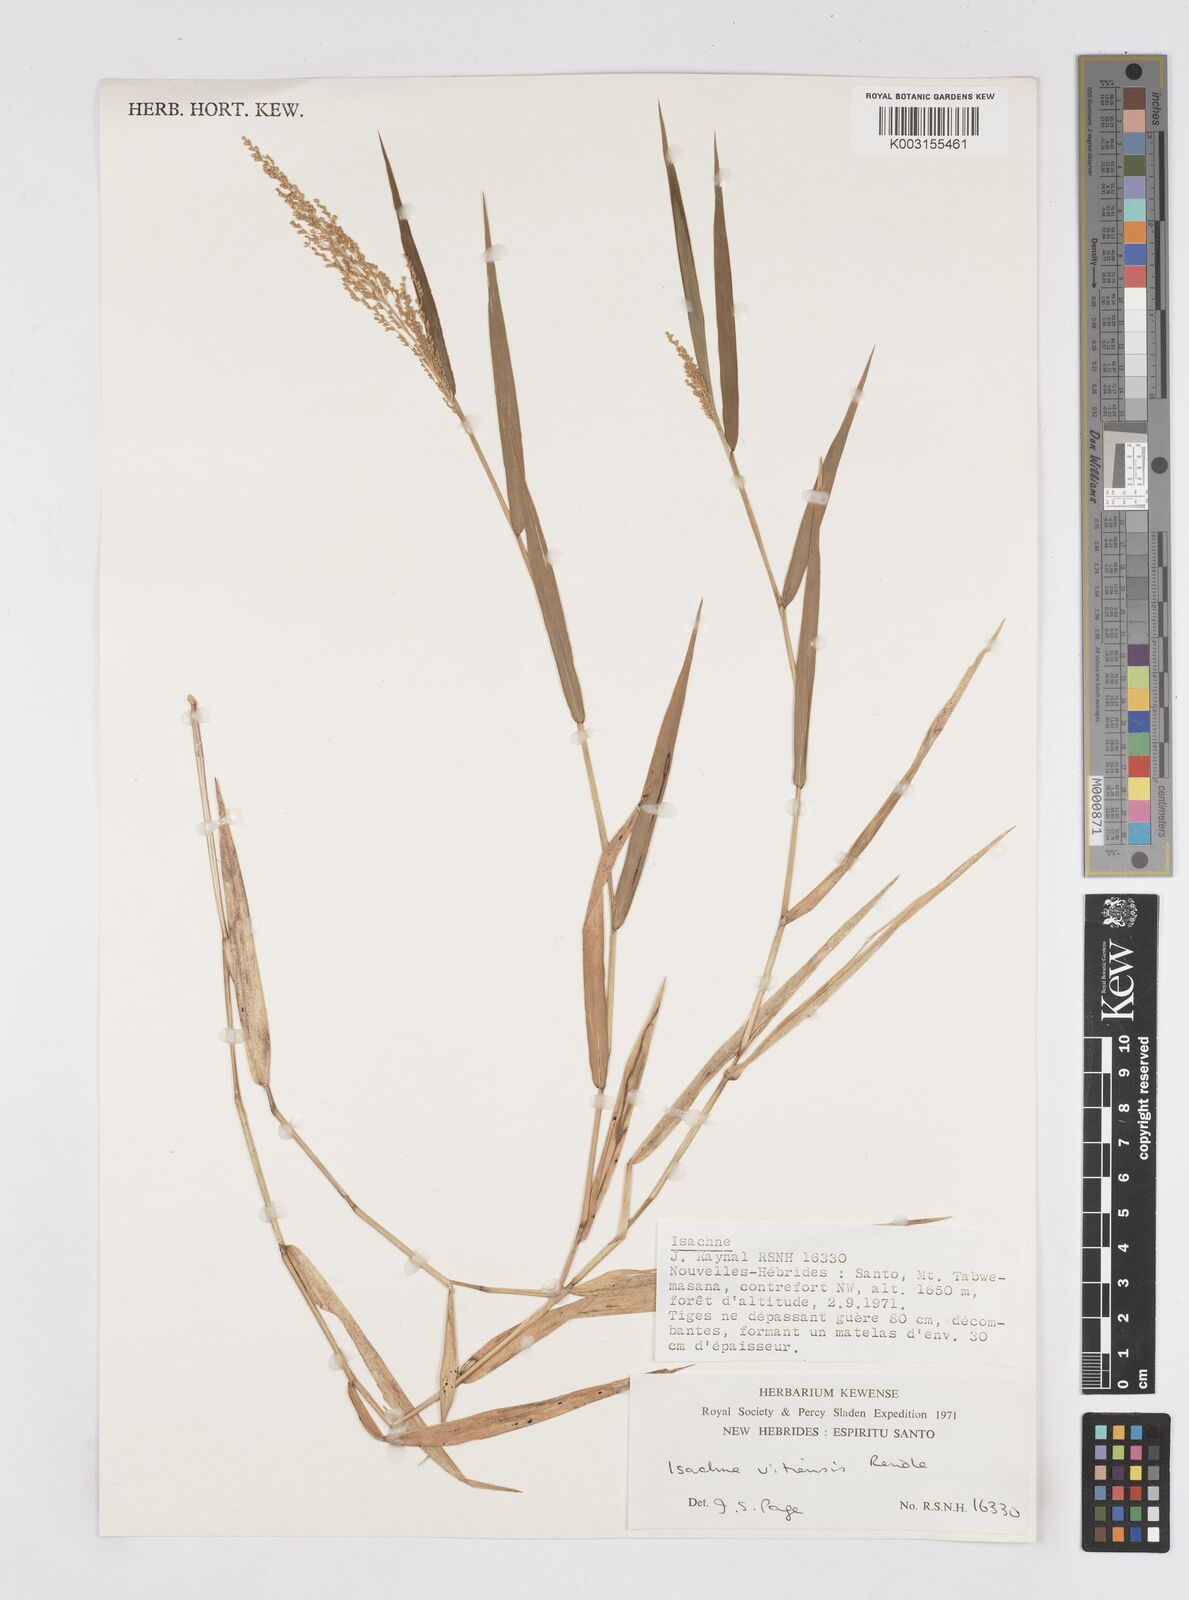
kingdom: Plantae
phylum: Tracheophyta
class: Liliopsida
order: Poales
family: Poaceae
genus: Isachne
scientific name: Isachne vitiensis
